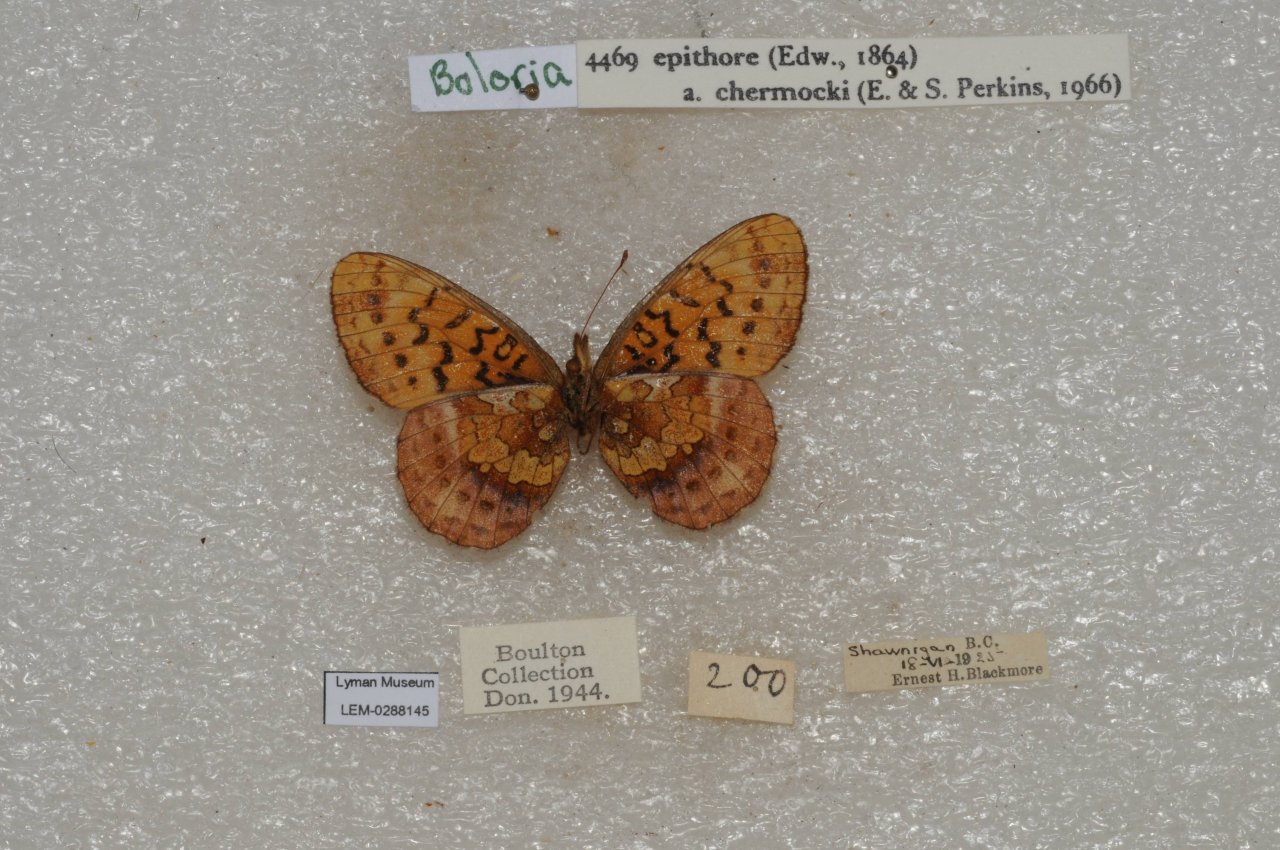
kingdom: Animalia
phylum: Arthropoda
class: Insecta
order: Lepidoptera
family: Nymphalidae
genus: Boloria
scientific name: Boloria epithore
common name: Pacific Fritillary
